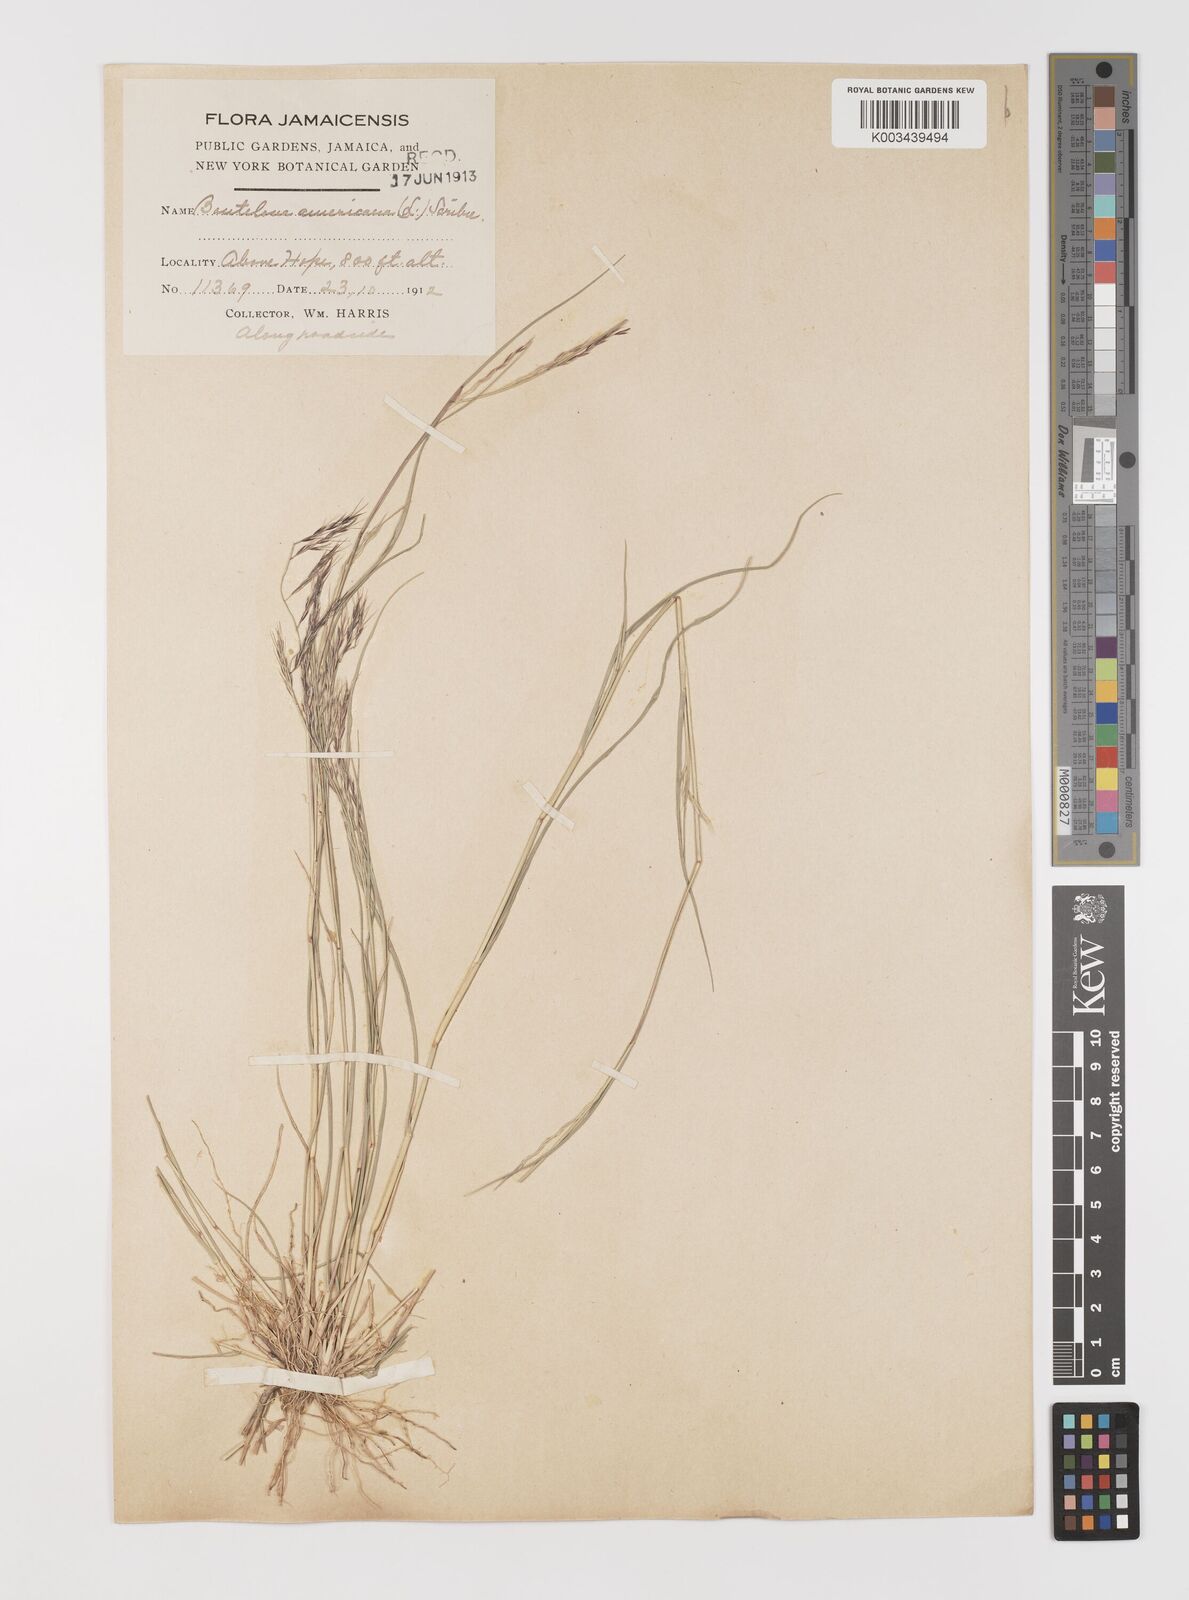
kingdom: Plantae
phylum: Tracheophyta
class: Liliopsida
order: Poales
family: Poaceae
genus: Bouteloua
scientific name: Bouteloua americana
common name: Mule grass
